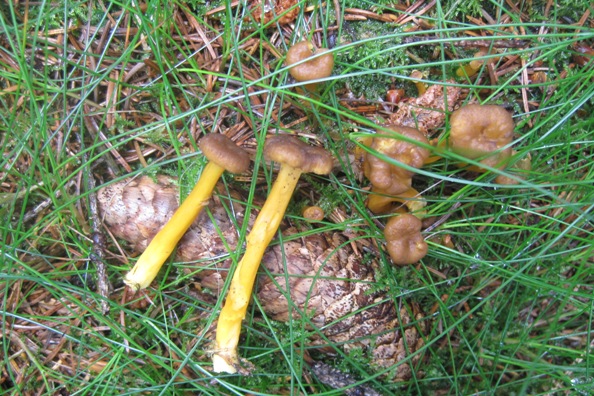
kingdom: Fungi
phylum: Basidiomycota
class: Agaricomycetes
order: Cantharellales
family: Hydnaceae
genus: Craterellus
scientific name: Craterellus tubaeformis
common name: tragt-kantarel
